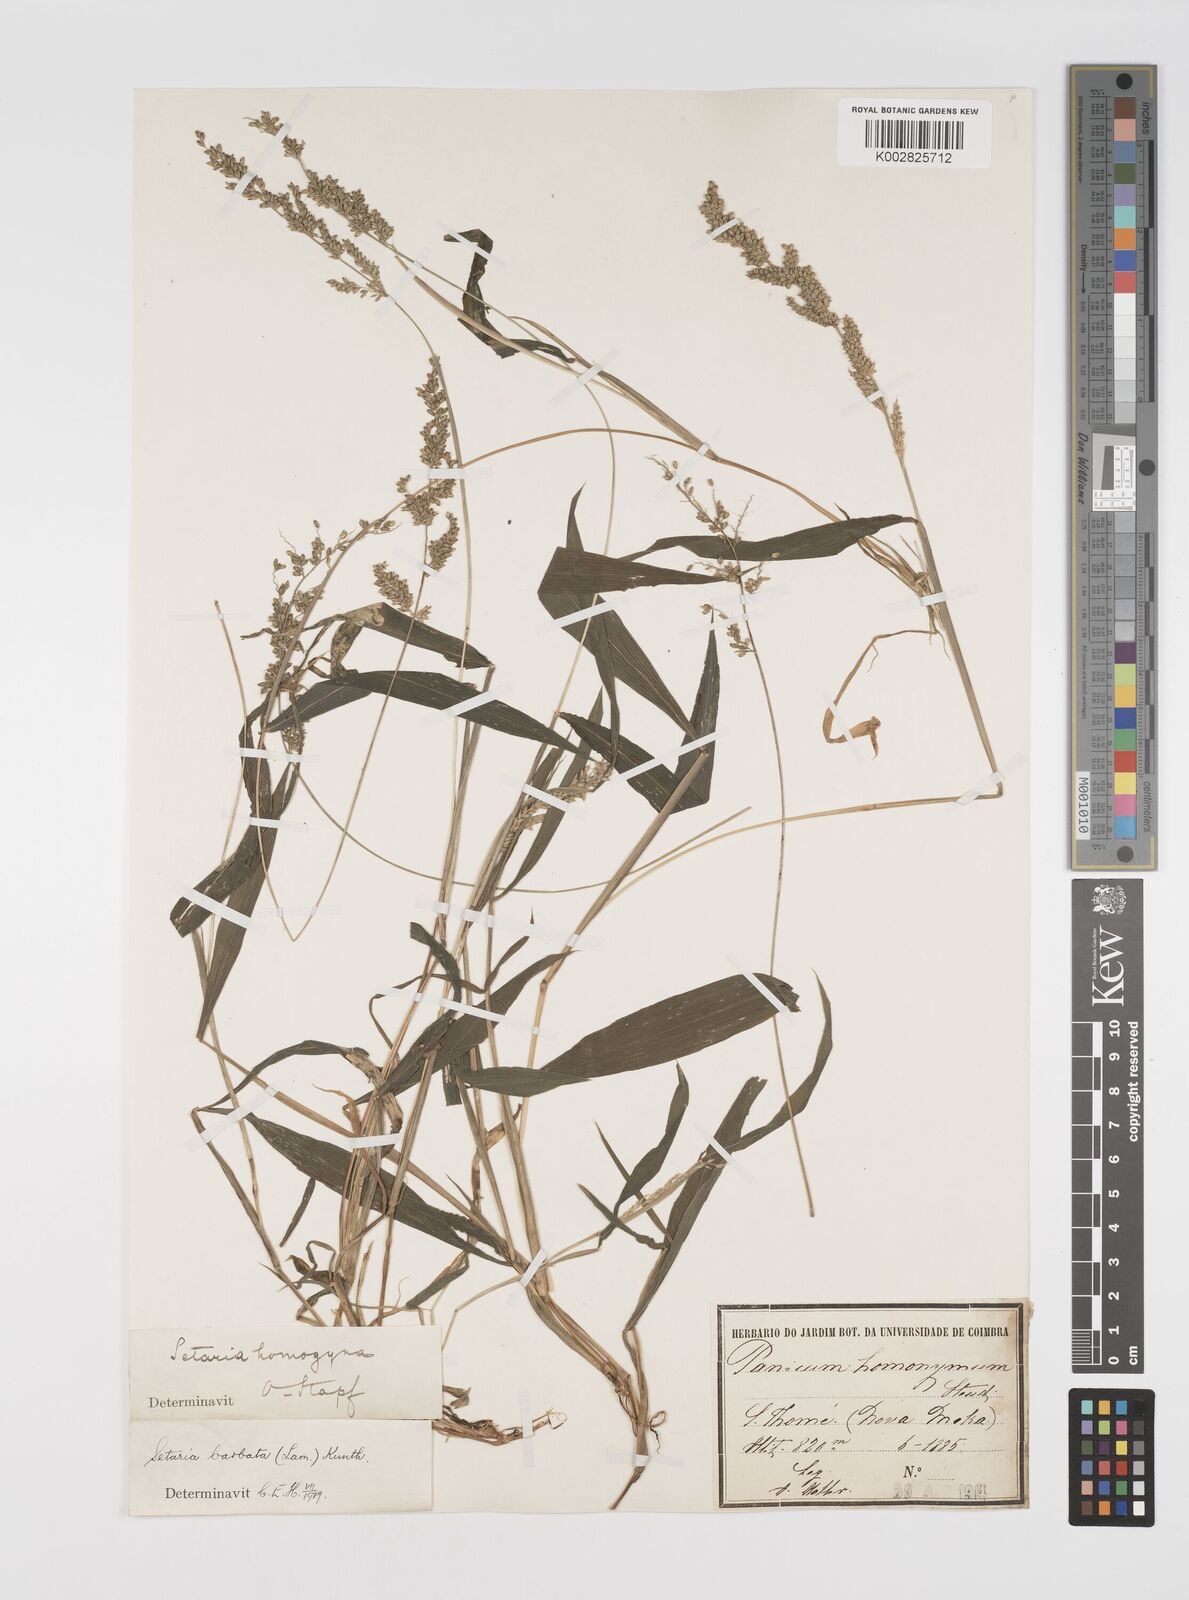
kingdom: Plantae
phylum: Tracheophyta
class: Liliopsida
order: Poales
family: Poaceae
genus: Setaria
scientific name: Setaria barbata
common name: East indian bristlegrass
